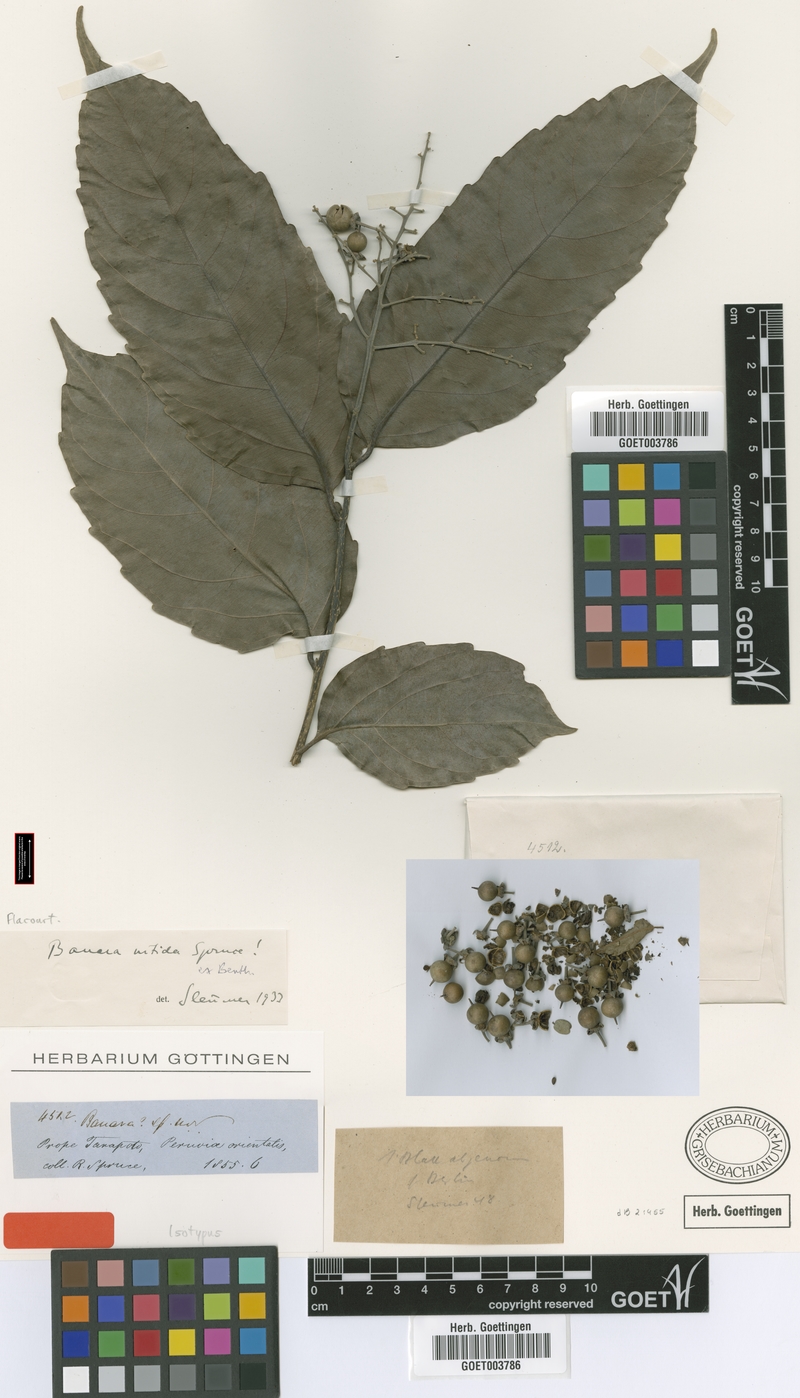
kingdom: Plantae
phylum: Tracheophyta
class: Magnoliopsida
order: Malpighiales
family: Salicaceae
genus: Banara
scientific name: Banara nitida
